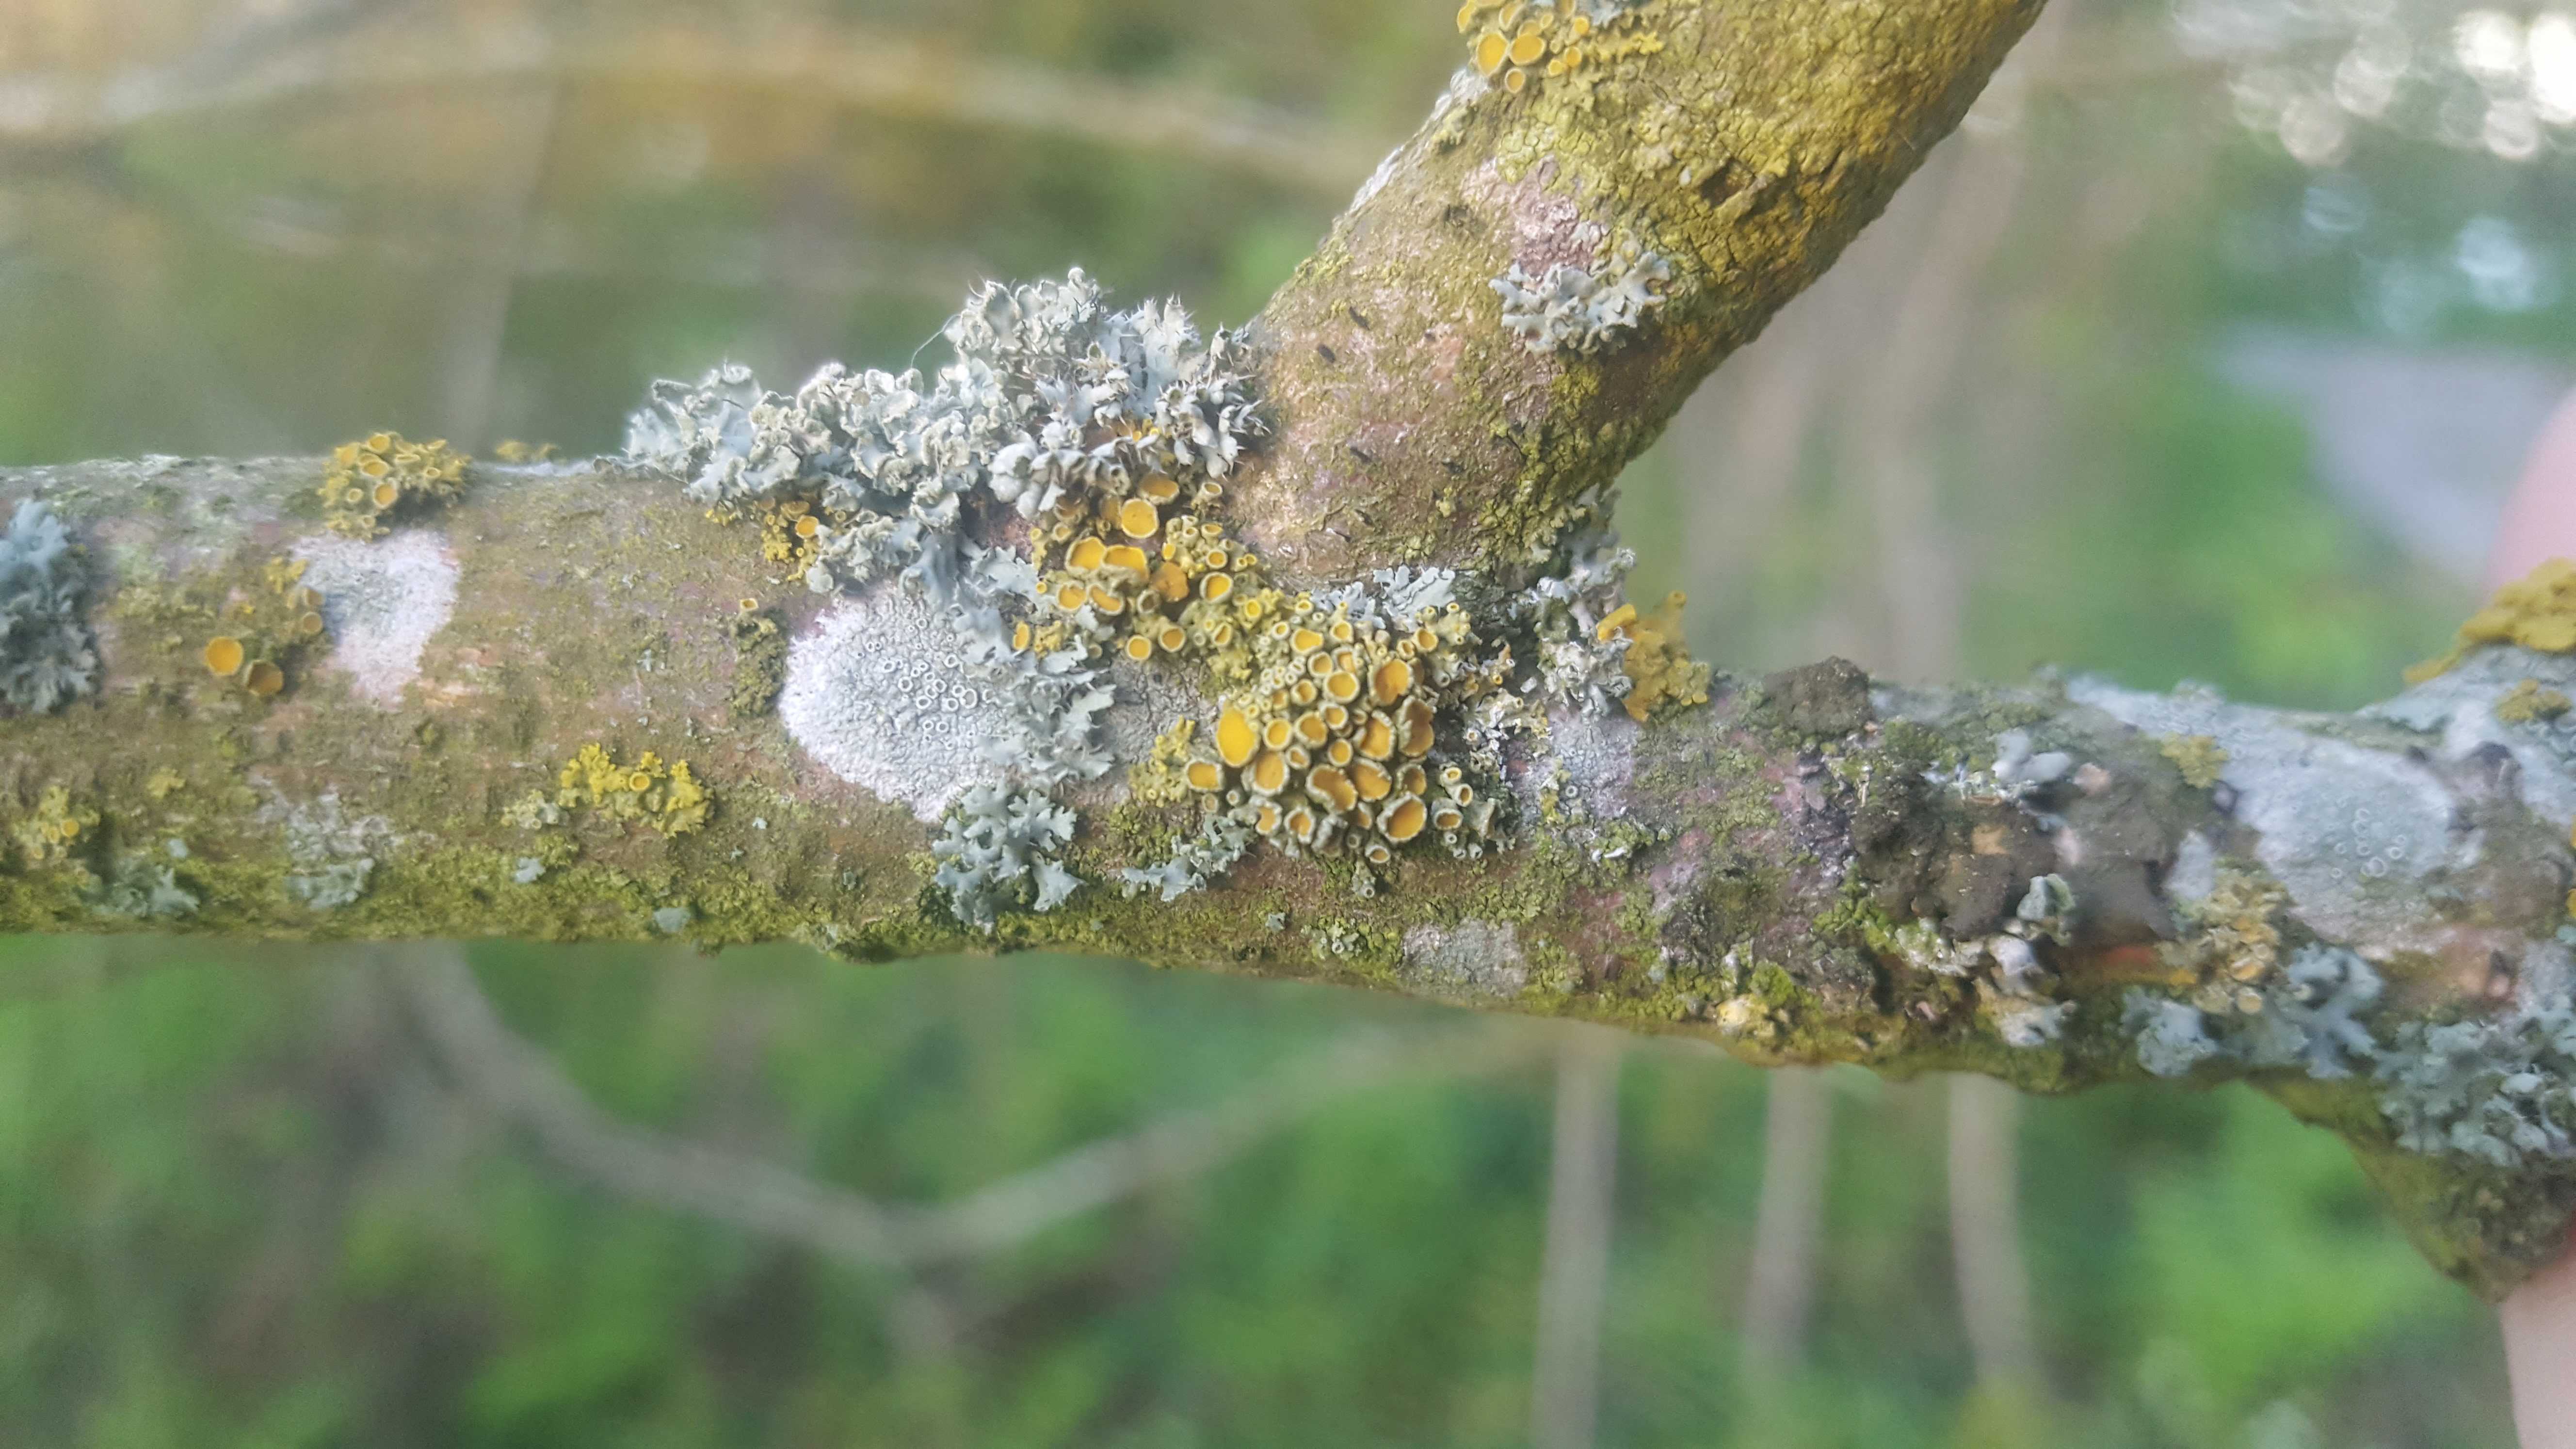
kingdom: Fungi
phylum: Ascomycota
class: Lecanoromycetes
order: Teloschistales
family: Teloschistaceae
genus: Polycauliona
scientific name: Polycauliona polycarpa
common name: mangefrugtet orangelav
